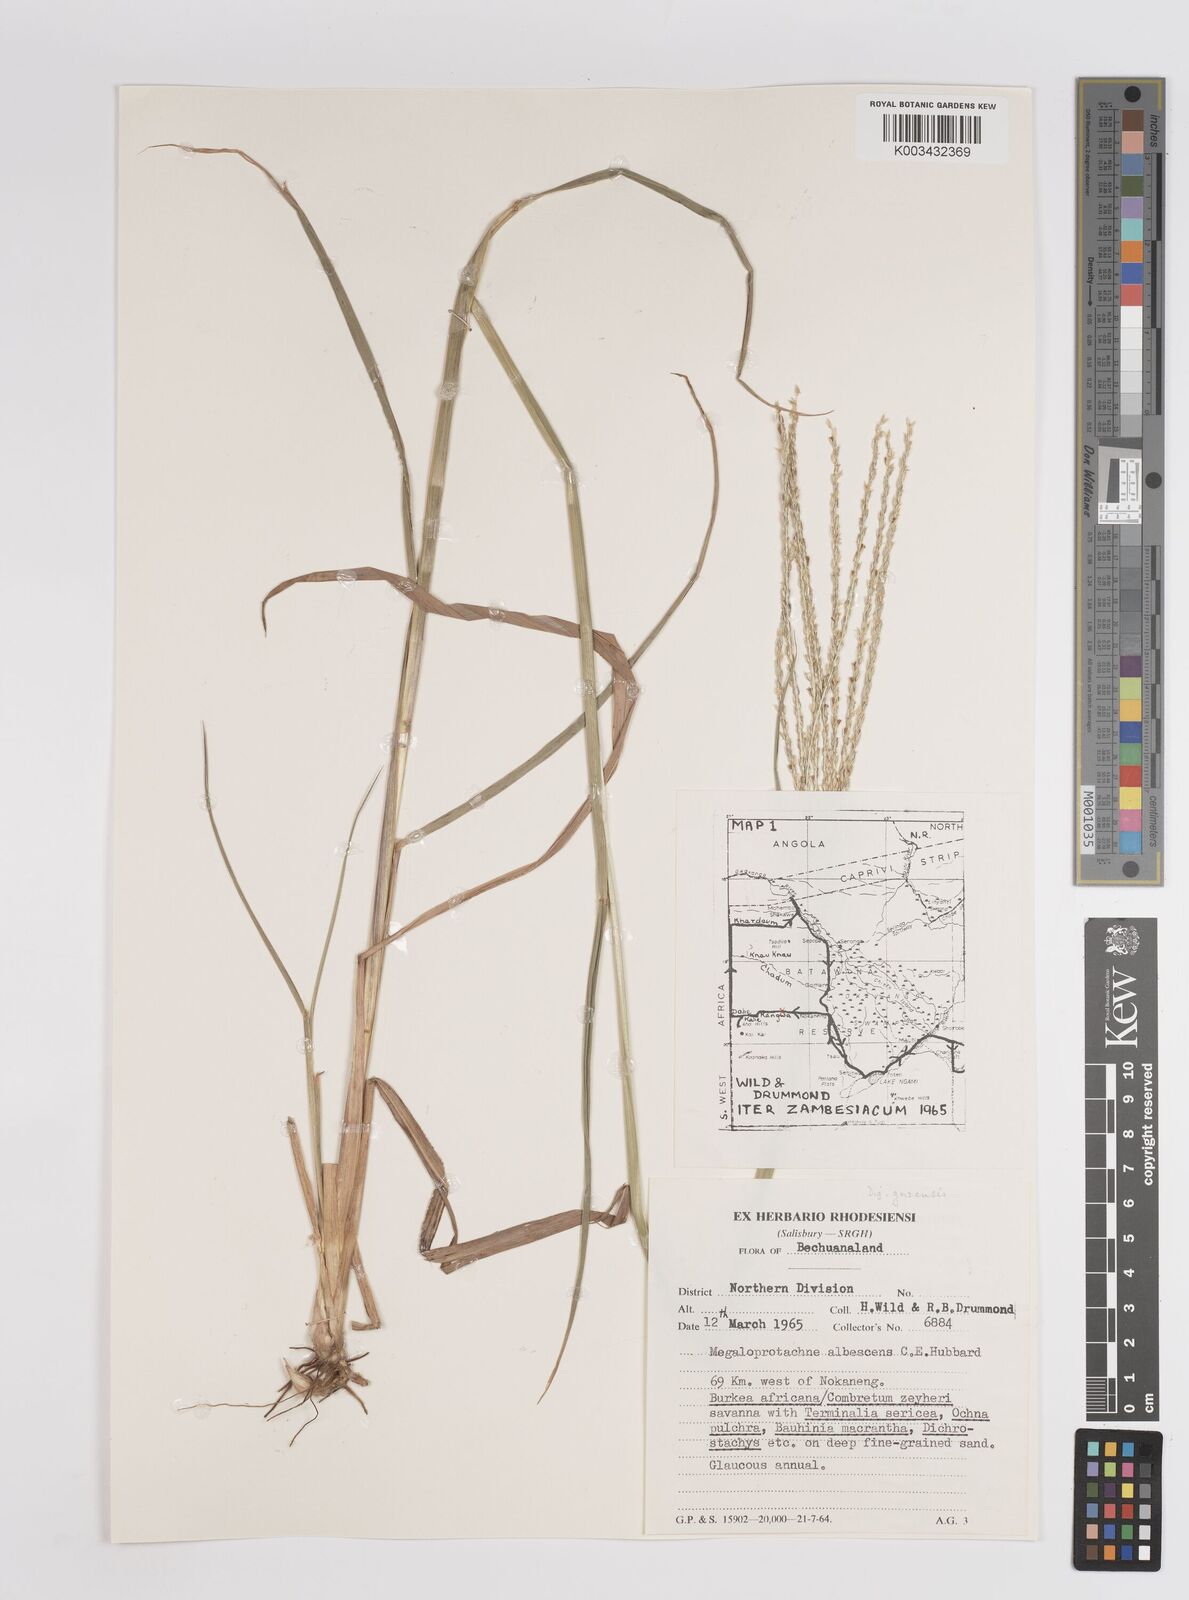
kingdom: Plantae
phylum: Tracheophyta
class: Liliopsida
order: Poales
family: Poaceae
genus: Digitaria
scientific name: Digitaria eriantha
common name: Digitgrass
